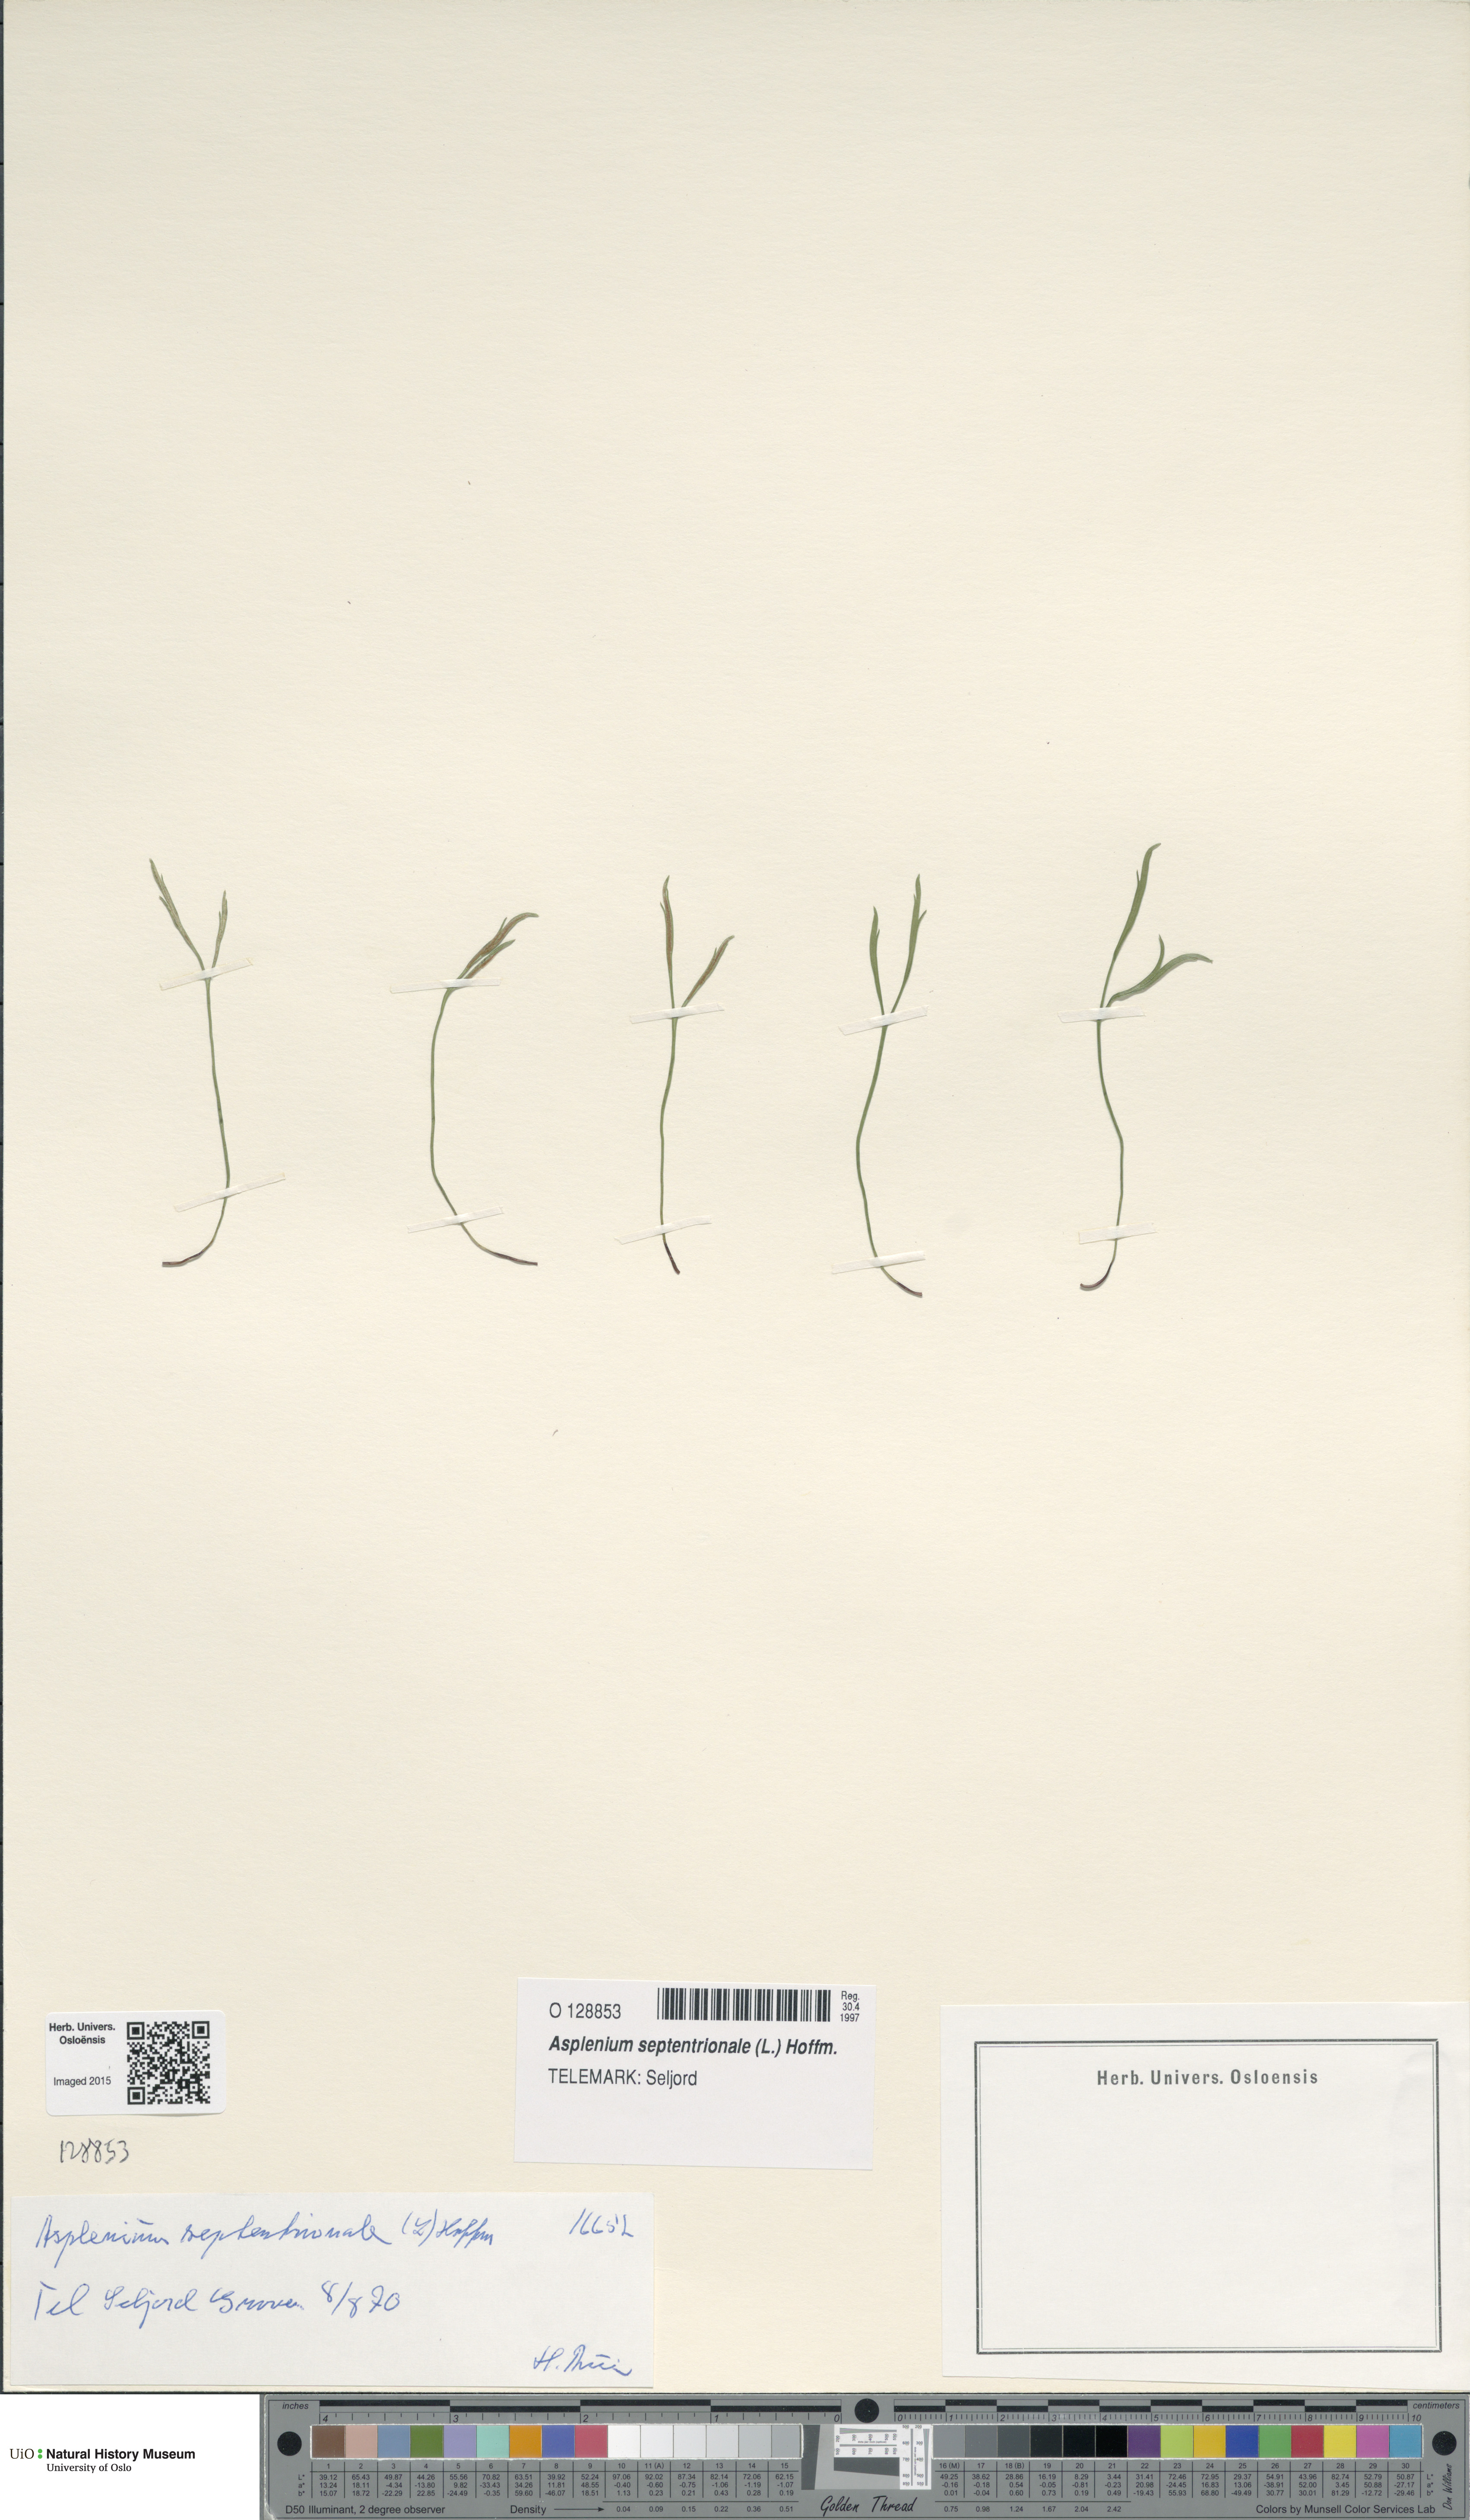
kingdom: Plantae
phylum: Tracheophyta
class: Polypodiopsida
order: Polypodiales
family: Aspleniaceae
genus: Asplenium
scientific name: Asplenium septentrionale
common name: Forked spleenwort
